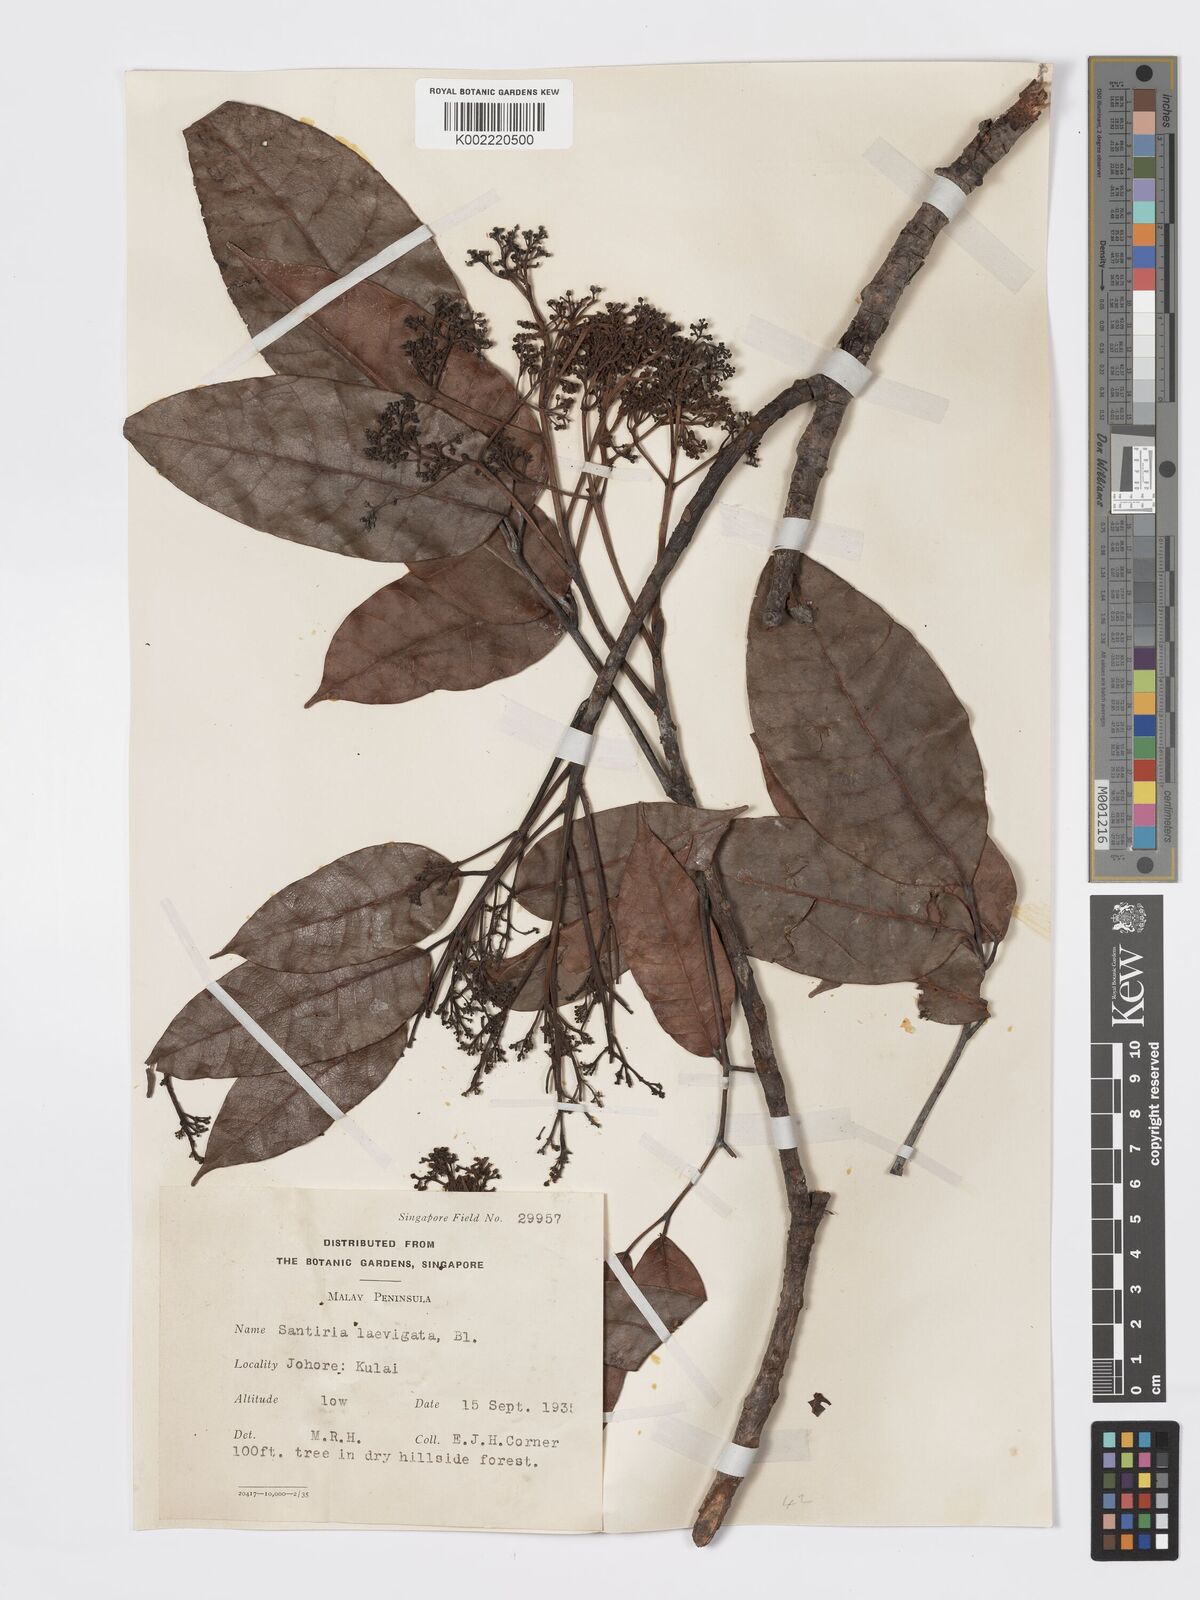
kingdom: Plantae
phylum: Tracheophyta
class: Magnoliopsida
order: Sapindales
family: Burseraceae
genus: Santiria
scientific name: Santiria laevigata
